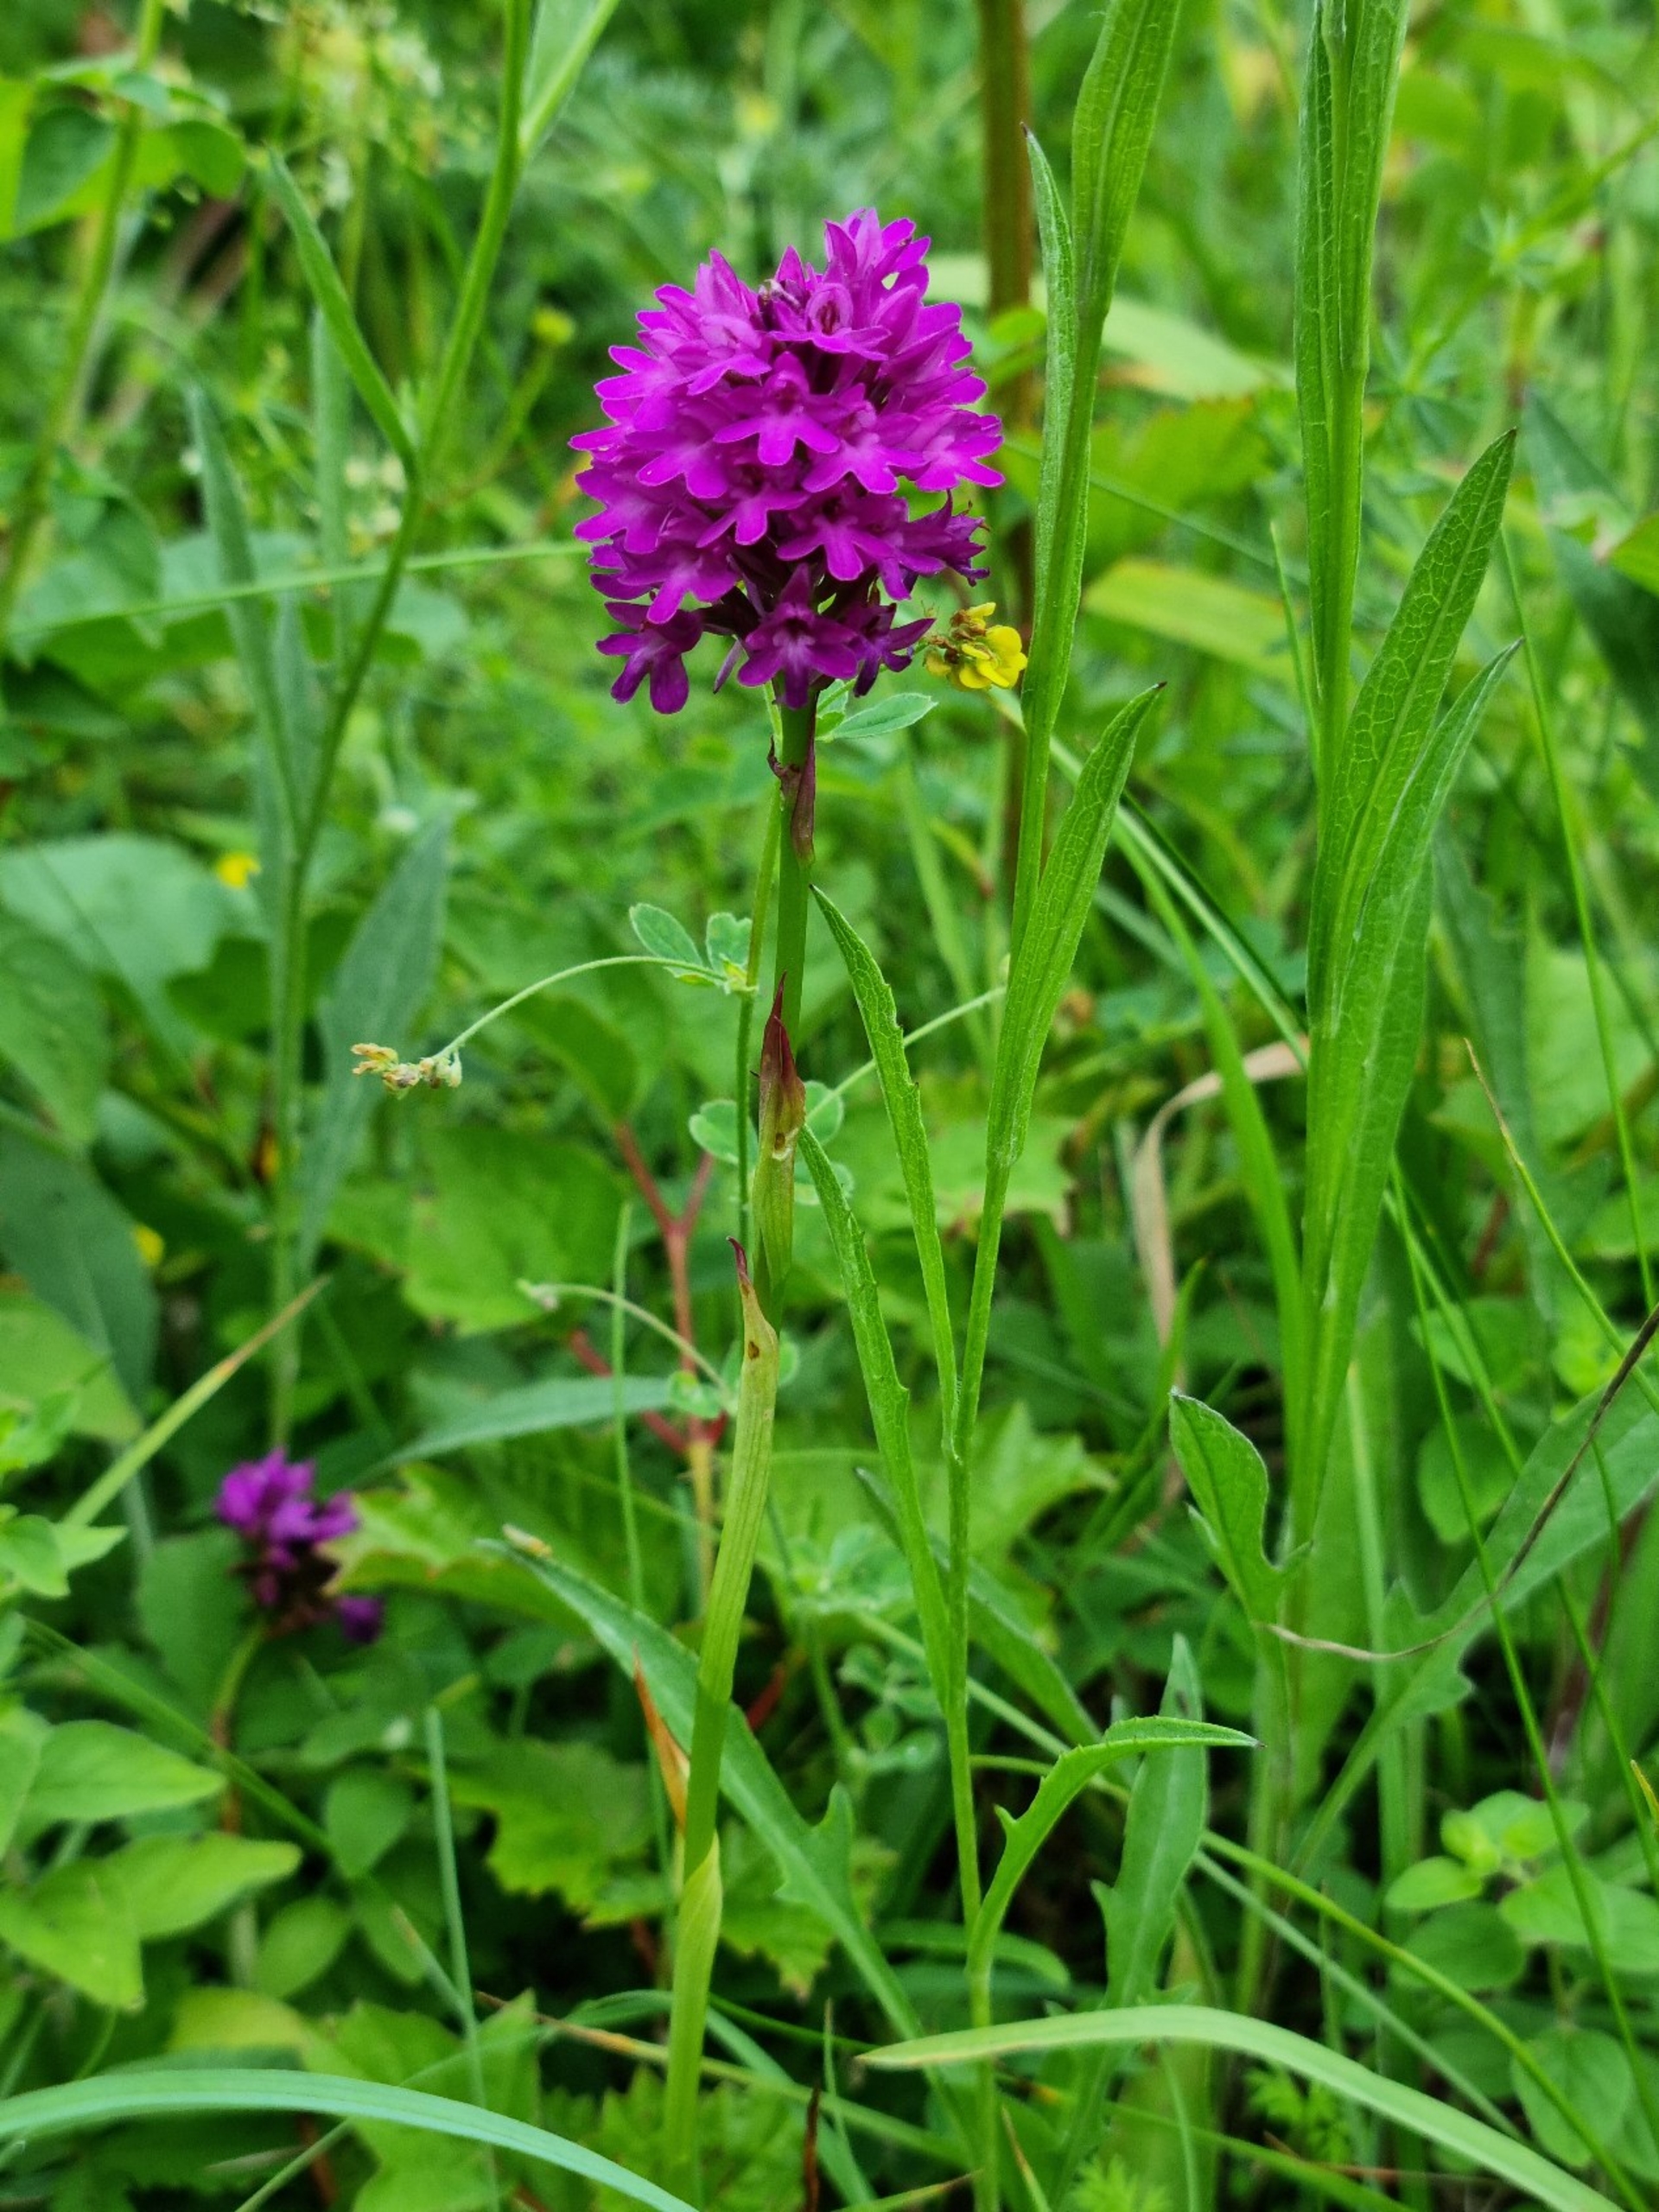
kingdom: Plantae
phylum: Tracheophyta
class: Liliopsida
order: Asparagales
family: Orchidaceae
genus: Anacamptis
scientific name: Anacamptis pyramidalis
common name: Horndrager
